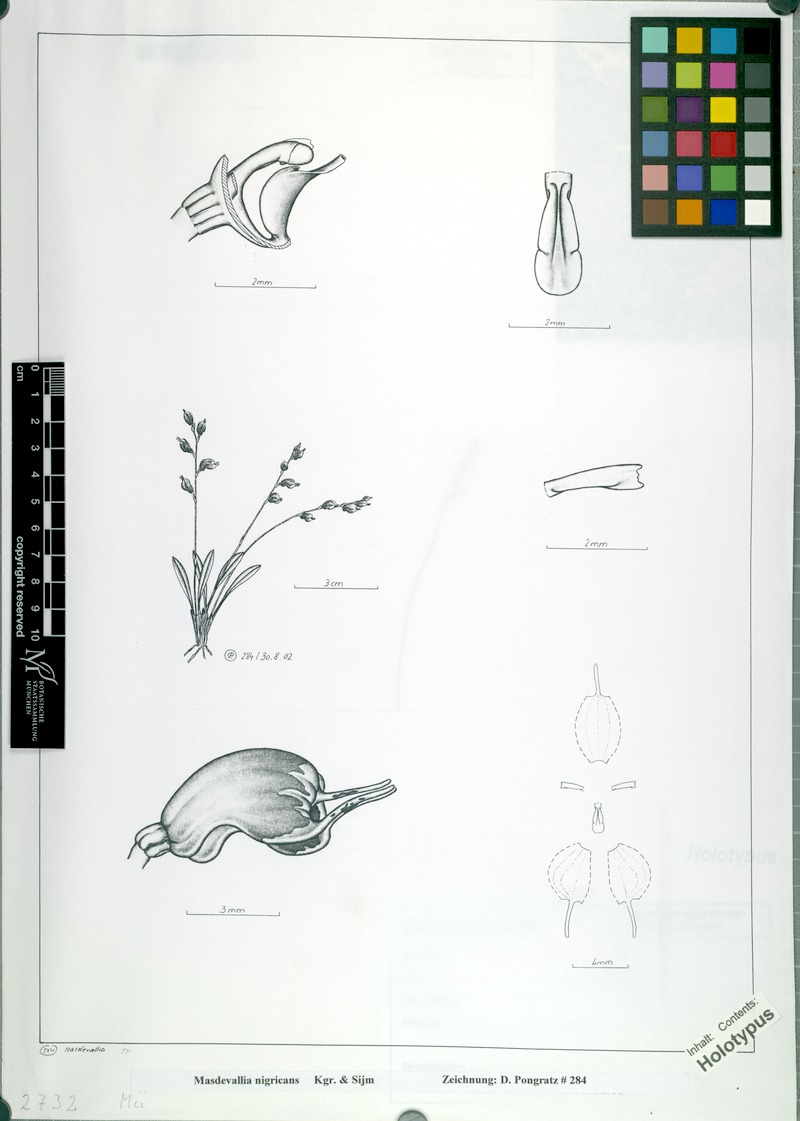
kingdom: Plantae
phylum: Tracheophyta
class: Liliopsida
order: Asparagales
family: Orchidaceae
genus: Masdevallia
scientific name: Masdevallia nigricans
